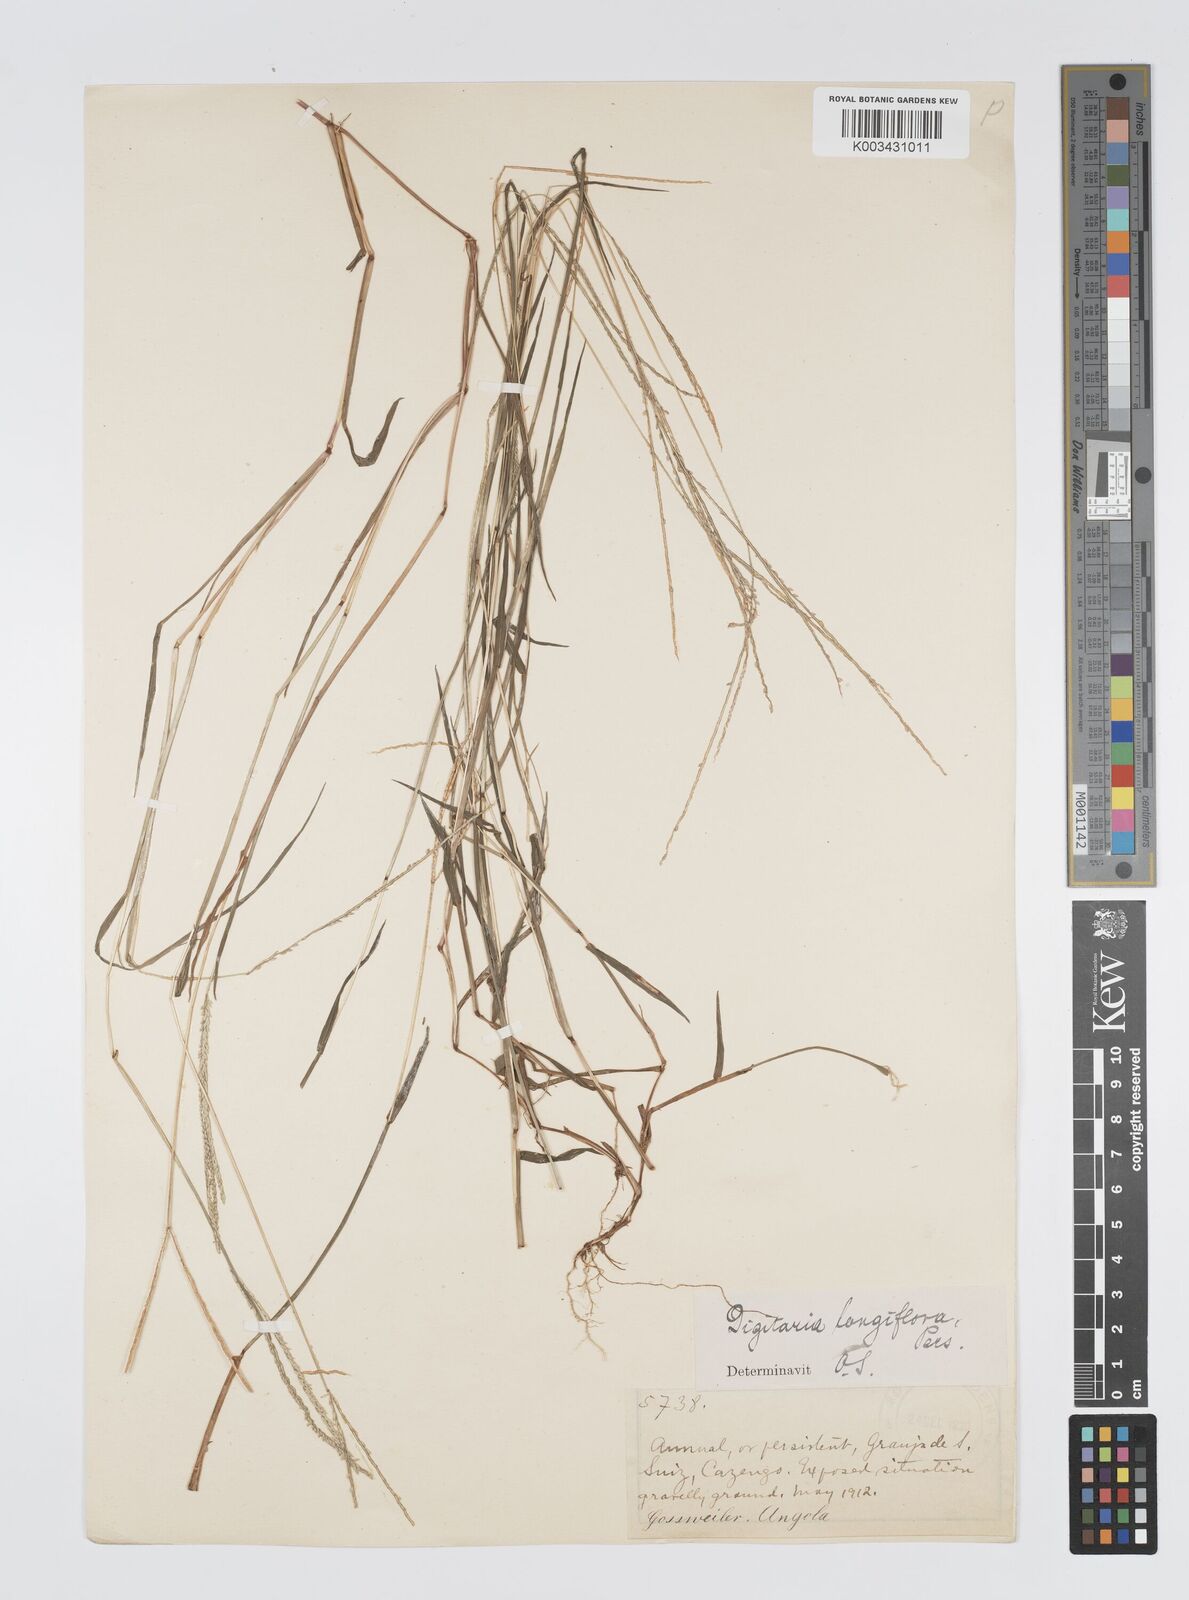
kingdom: Plantae
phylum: Tracheophyta
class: Liliopsida
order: Poales
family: Poaceae
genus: Digitaria
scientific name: Digitaria longiflora
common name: Wire crabgrass
